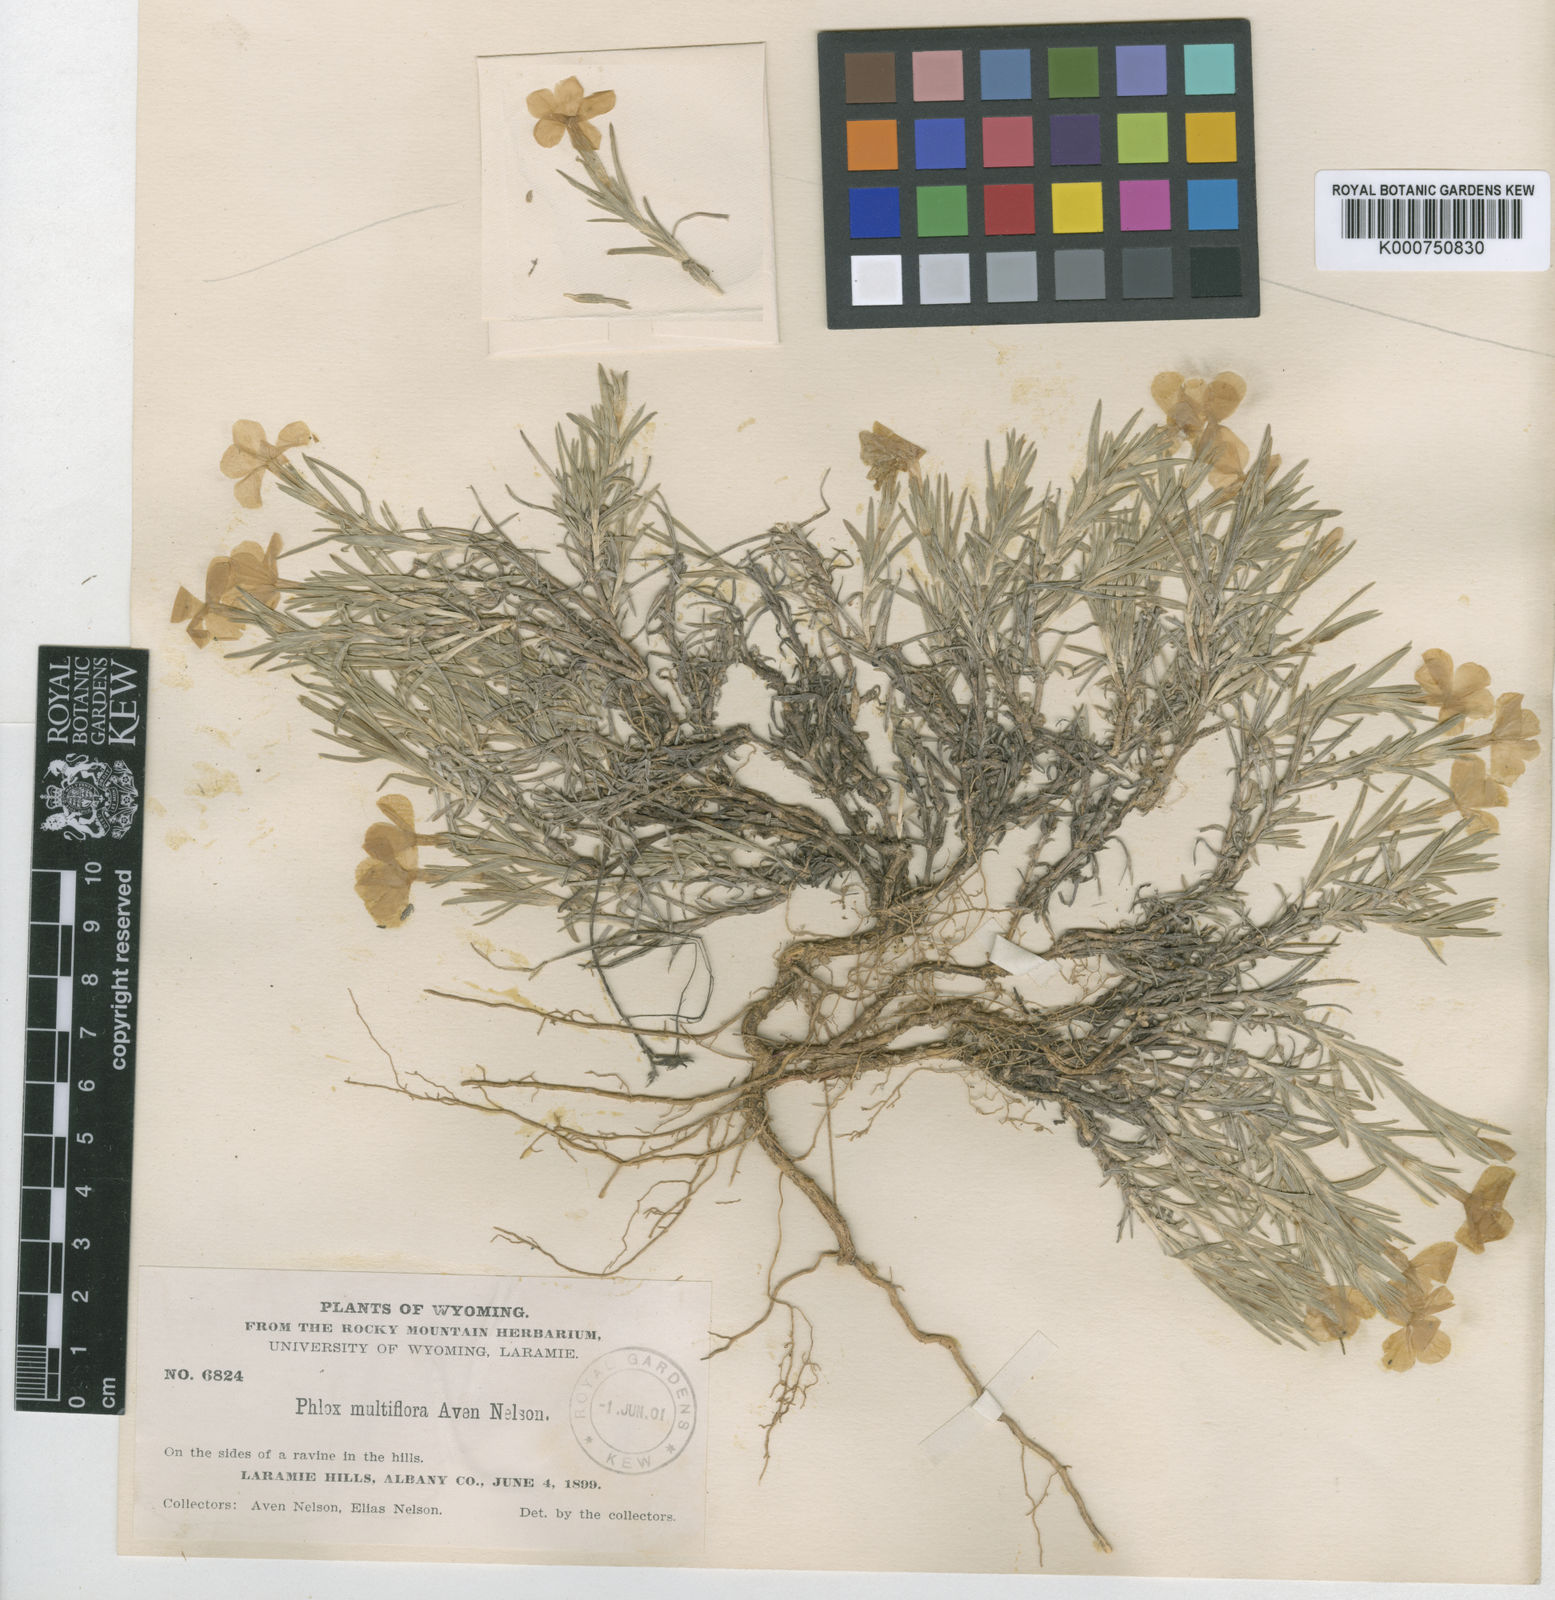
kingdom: Plantae
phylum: Tracheophyta
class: Magnoliopsida
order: Ericales
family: Polemoniaceae
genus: Phlox
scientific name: Phlox multiflora
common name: Rocky mountain phlox
